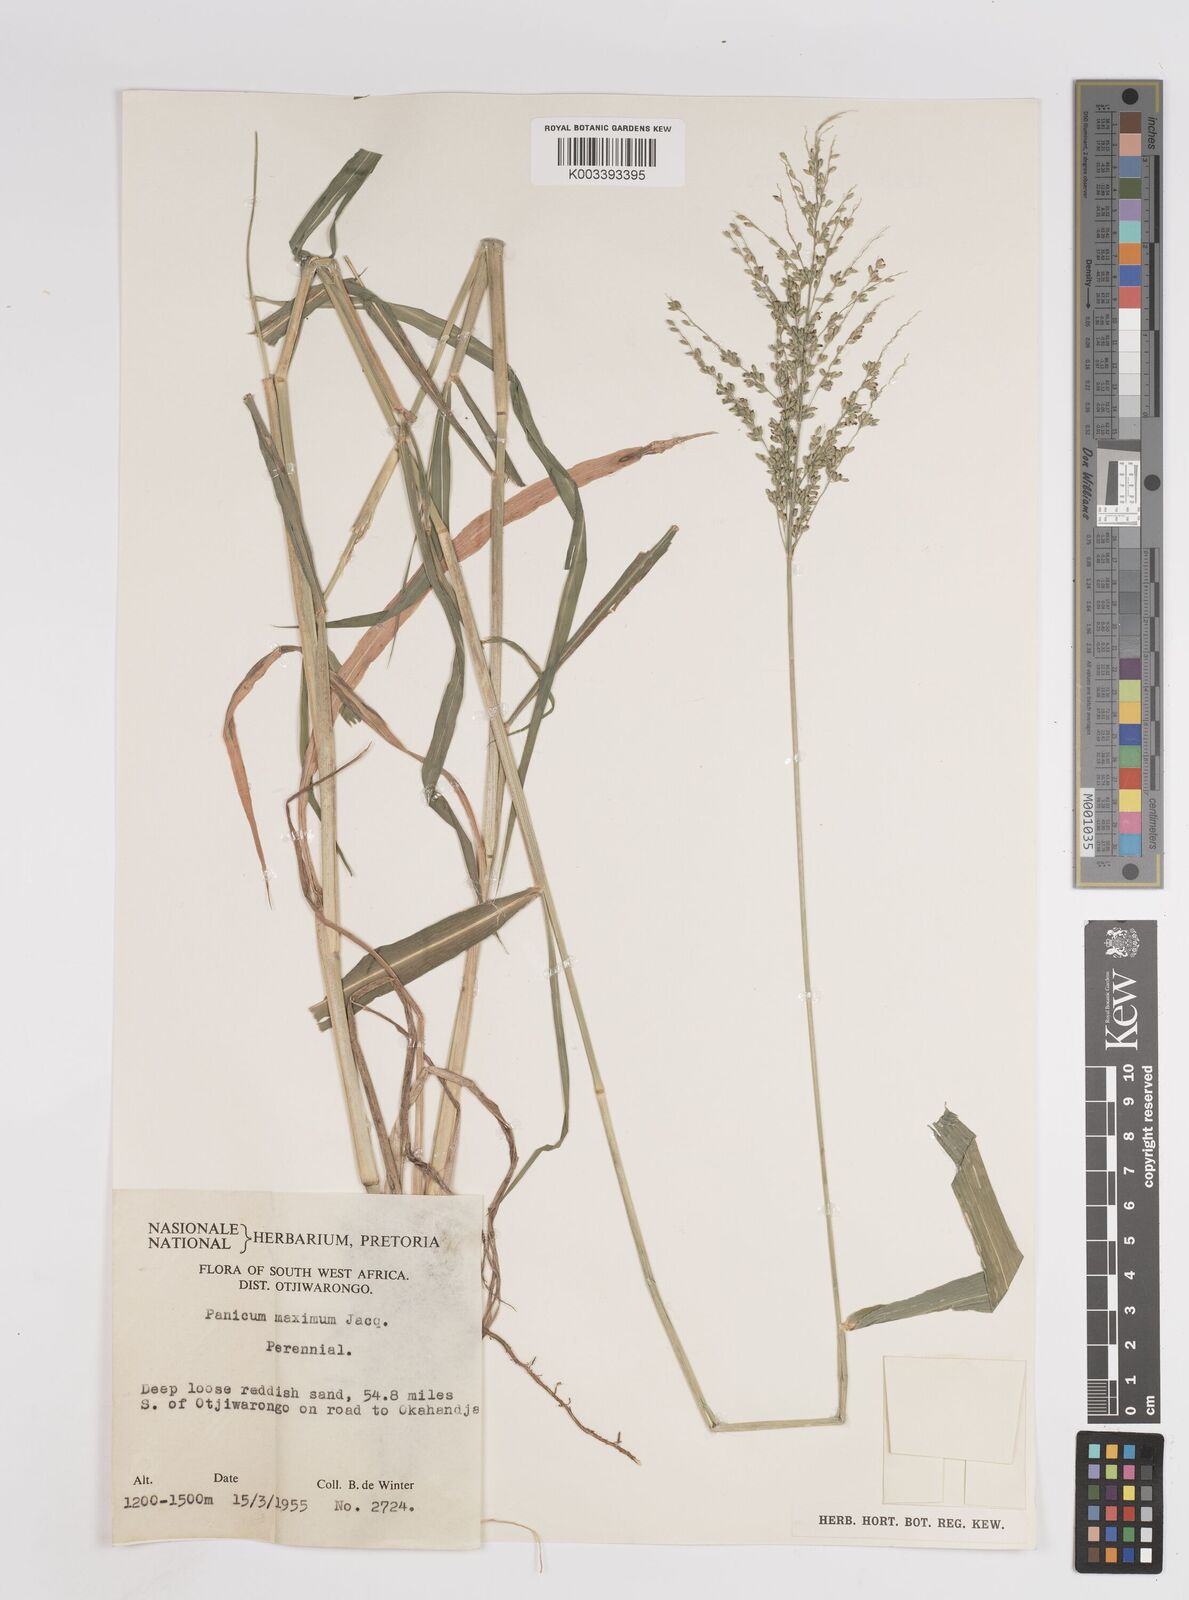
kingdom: Plantae
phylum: Tracheophyta
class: Liliopsida
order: Poales
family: Poaceae
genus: Megathyrsus
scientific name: Megathyrsus maximus
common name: Guineagrass
